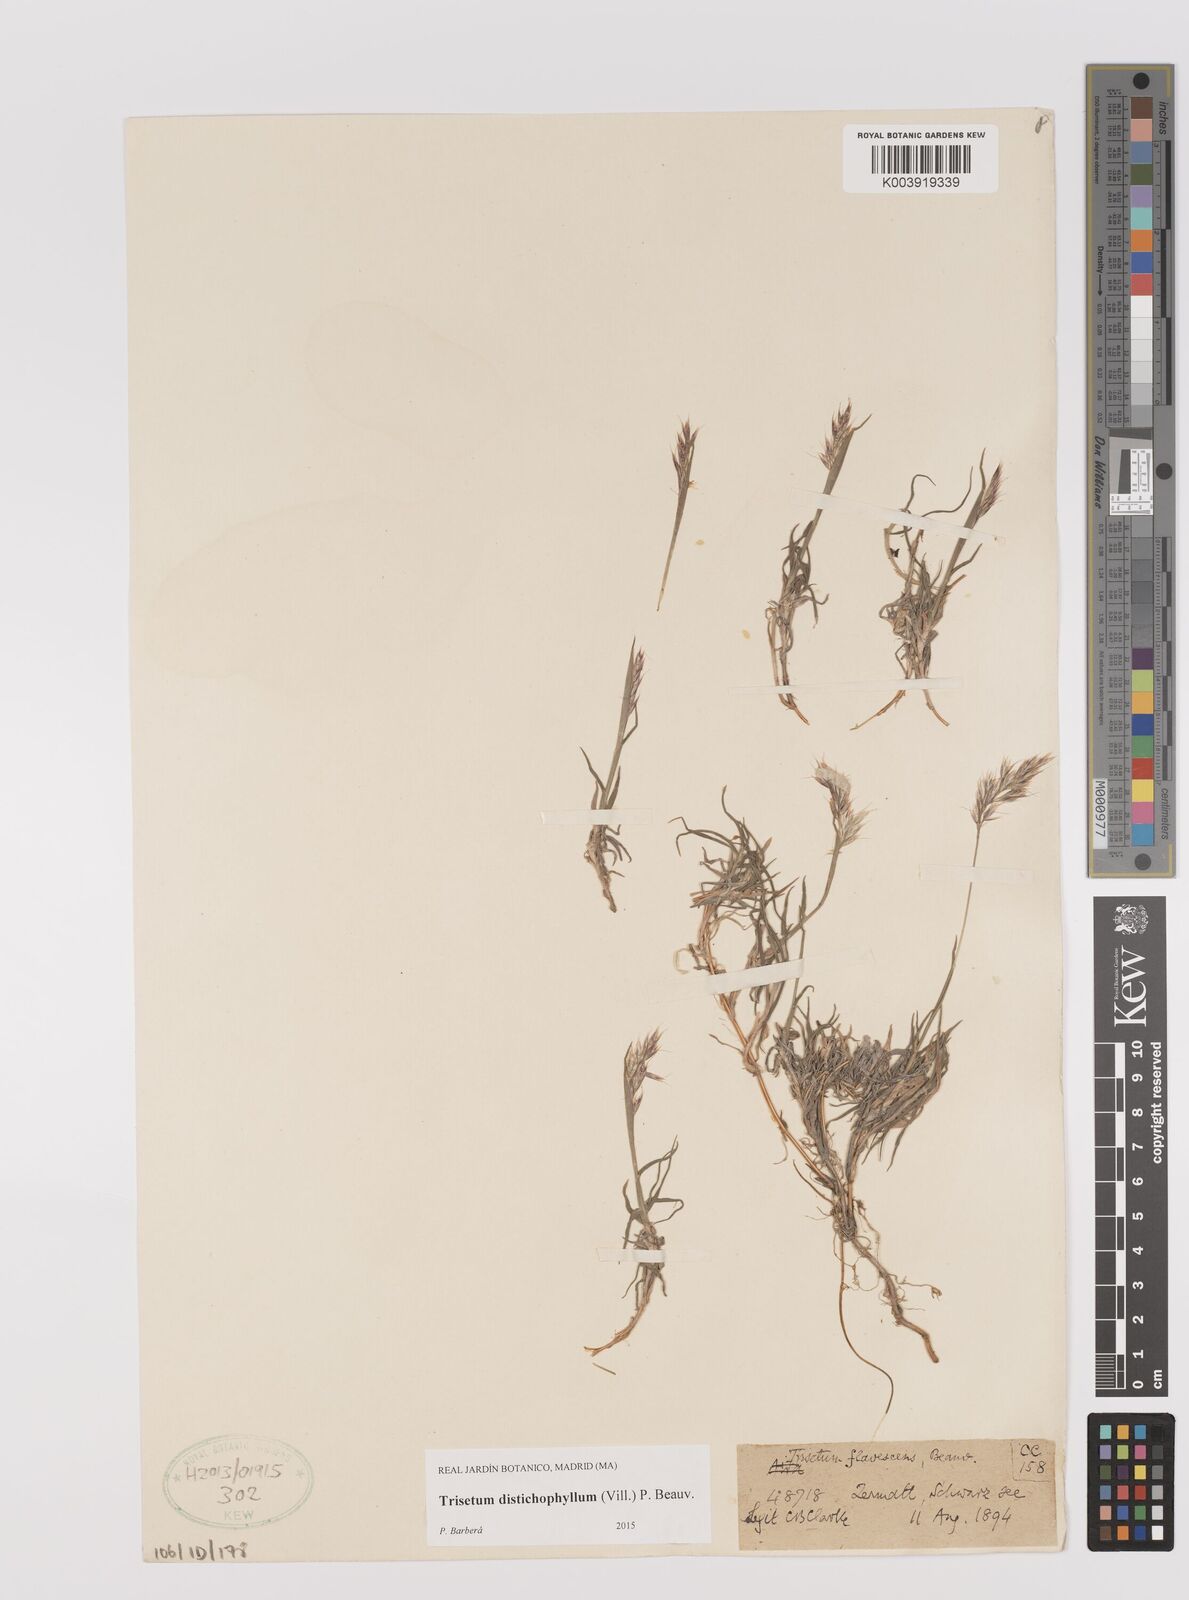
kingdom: Plantae
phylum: Tracheophyta
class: Liliopsida
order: Poales
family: Poaceae
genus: Acrospelion
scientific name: Acrospelion distichophyllum
